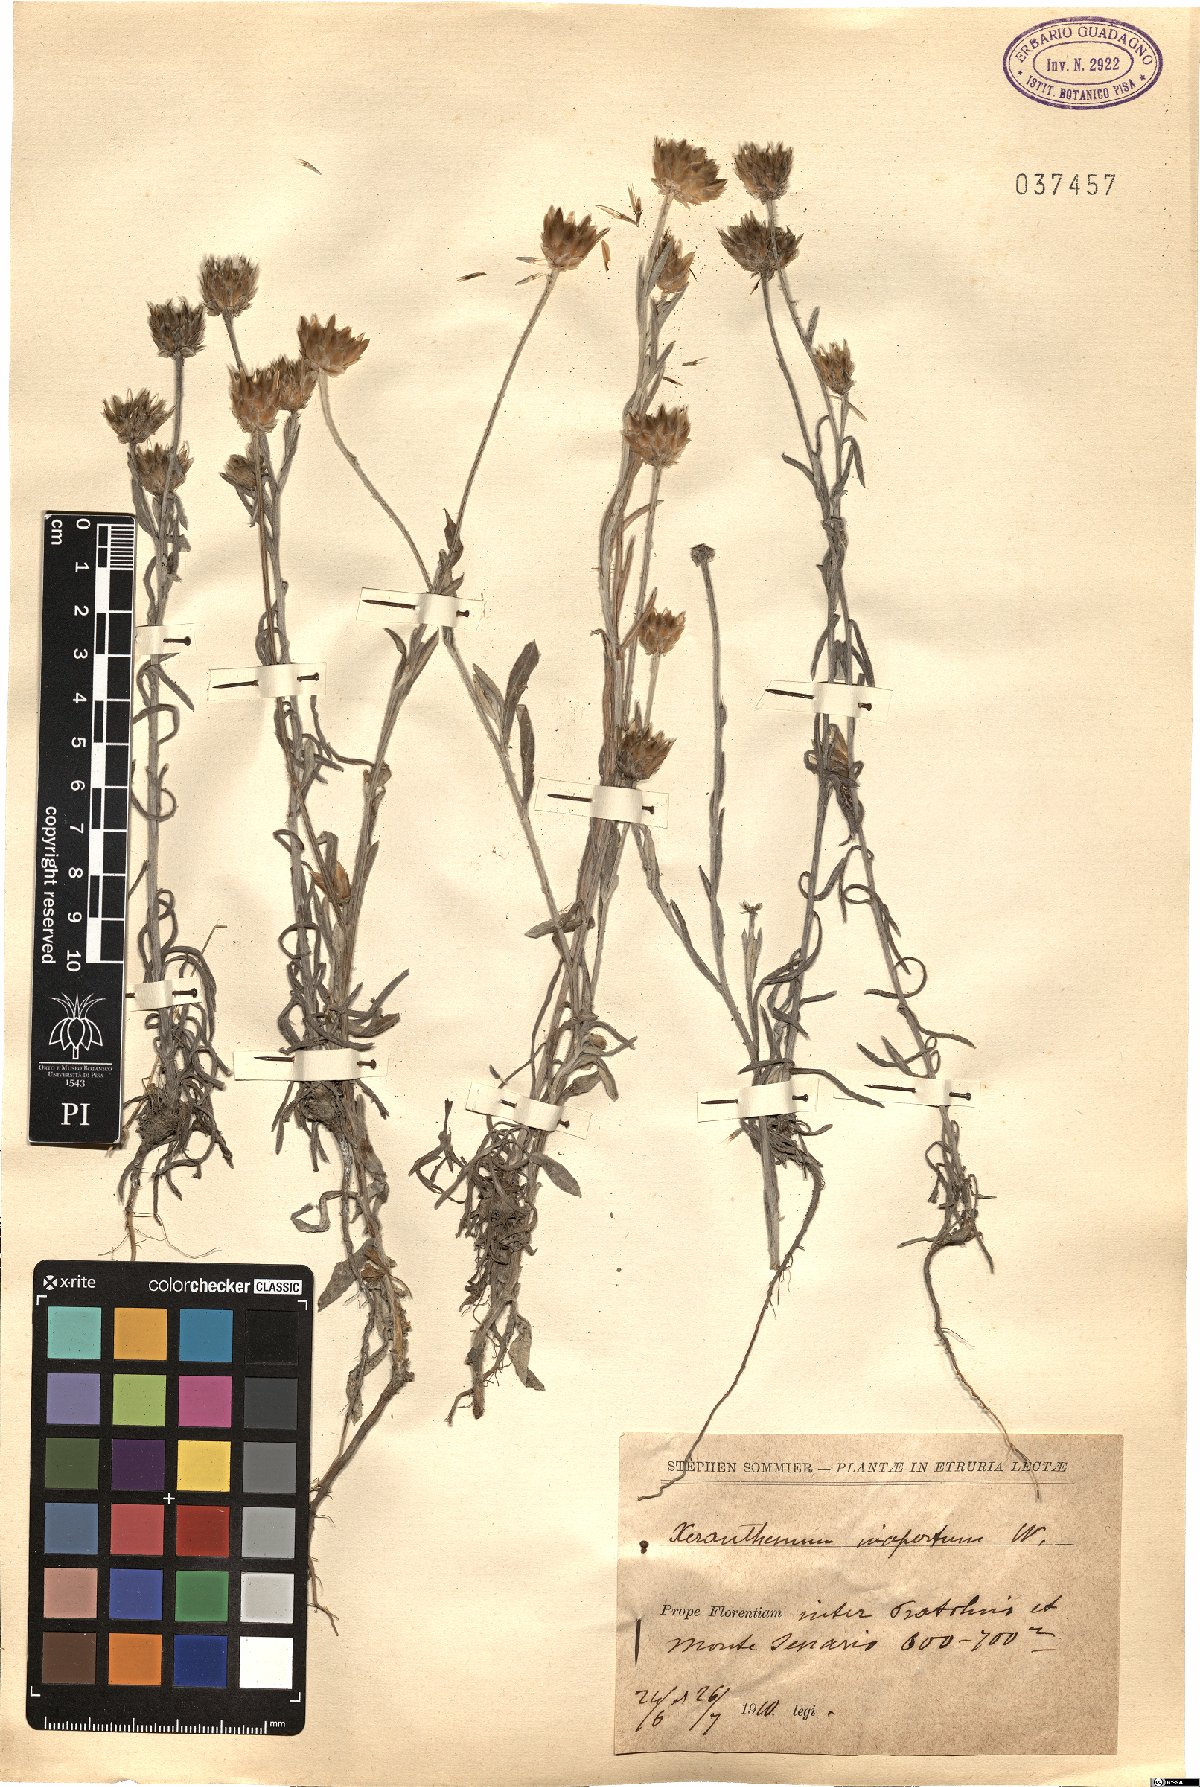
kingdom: Plantae
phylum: Tracheophyta
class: Magnoliopsida
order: Asterales
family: Asteraceae
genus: Xeranthemum
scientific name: Xeranthemum inapertum
